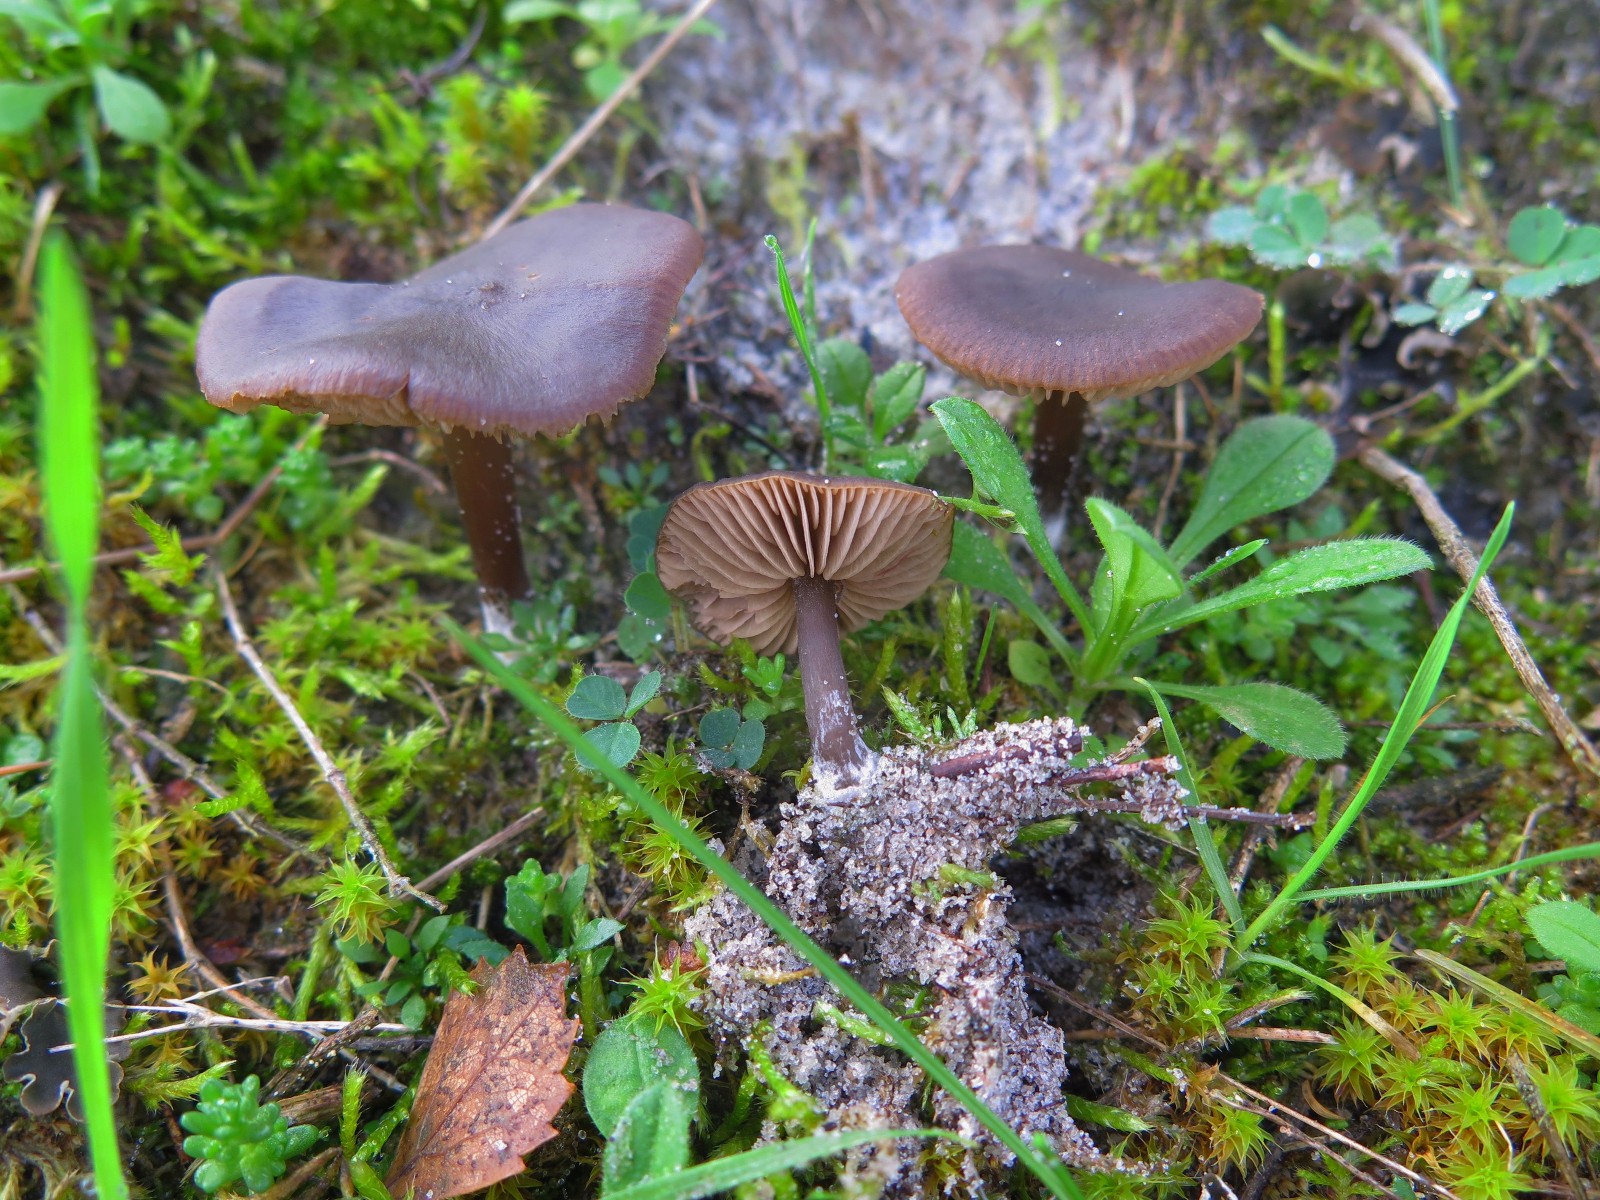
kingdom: Fungi
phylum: Basidiomycota
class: Agaricomycetes
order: Agaricales
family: Entolomataceae
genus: Entoloma
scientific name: Entoloma
